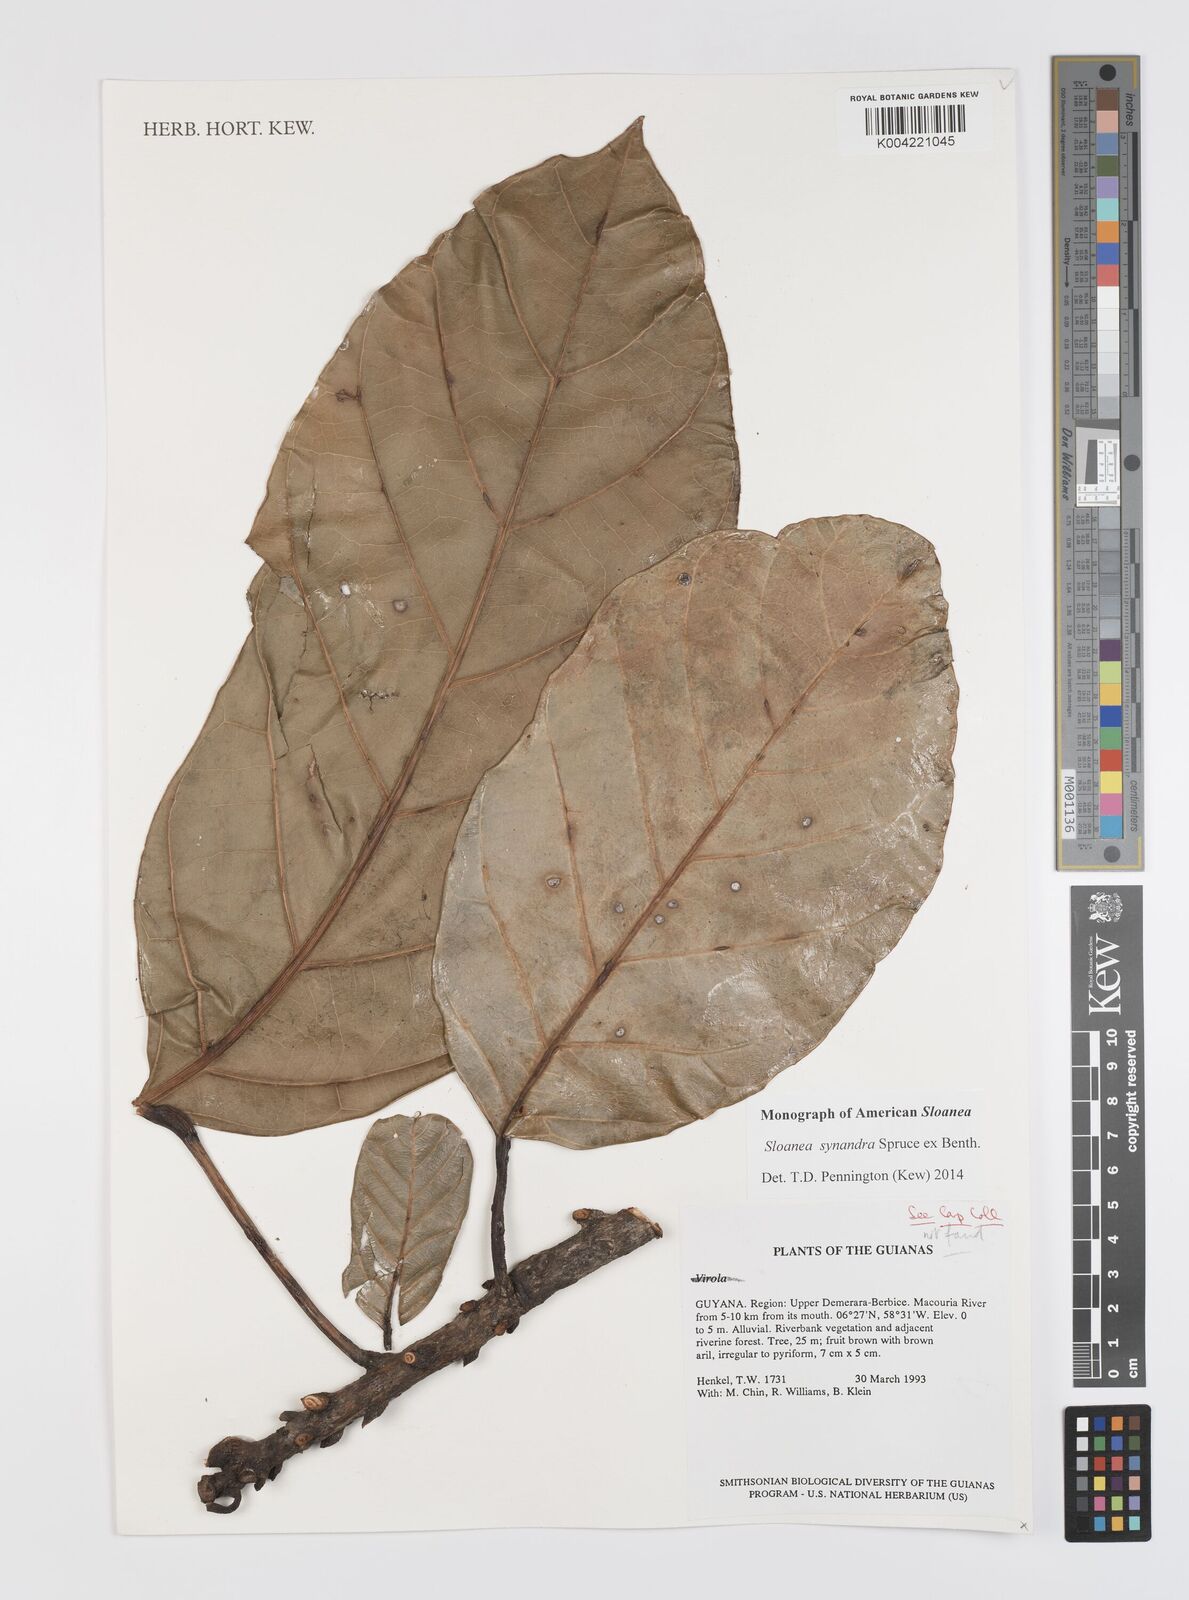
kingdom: Plantae
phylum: Tracheophyta
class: Magnoliopsida
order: Oxalidales
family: Elaeocarpaceae
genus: Sloanea
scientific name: Sloanea synandra
